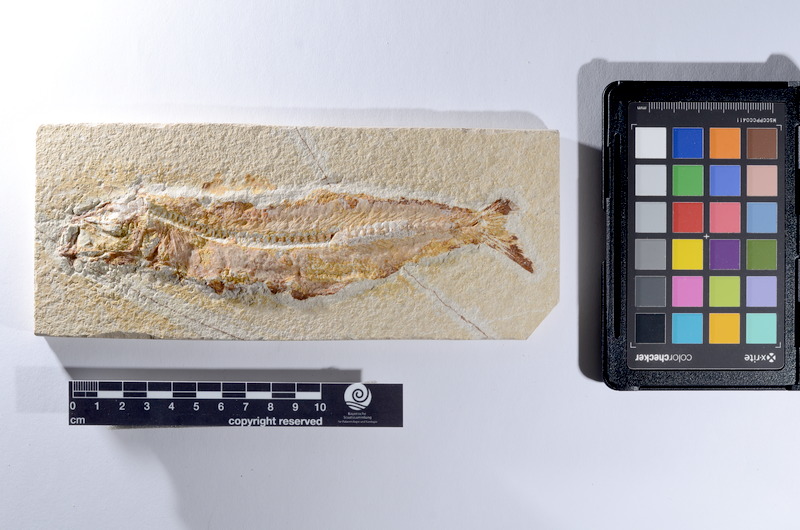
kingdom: Animalia
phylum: Chordata
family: Ascalaboidae
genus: Tharsis
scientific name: Tharsis dubius
